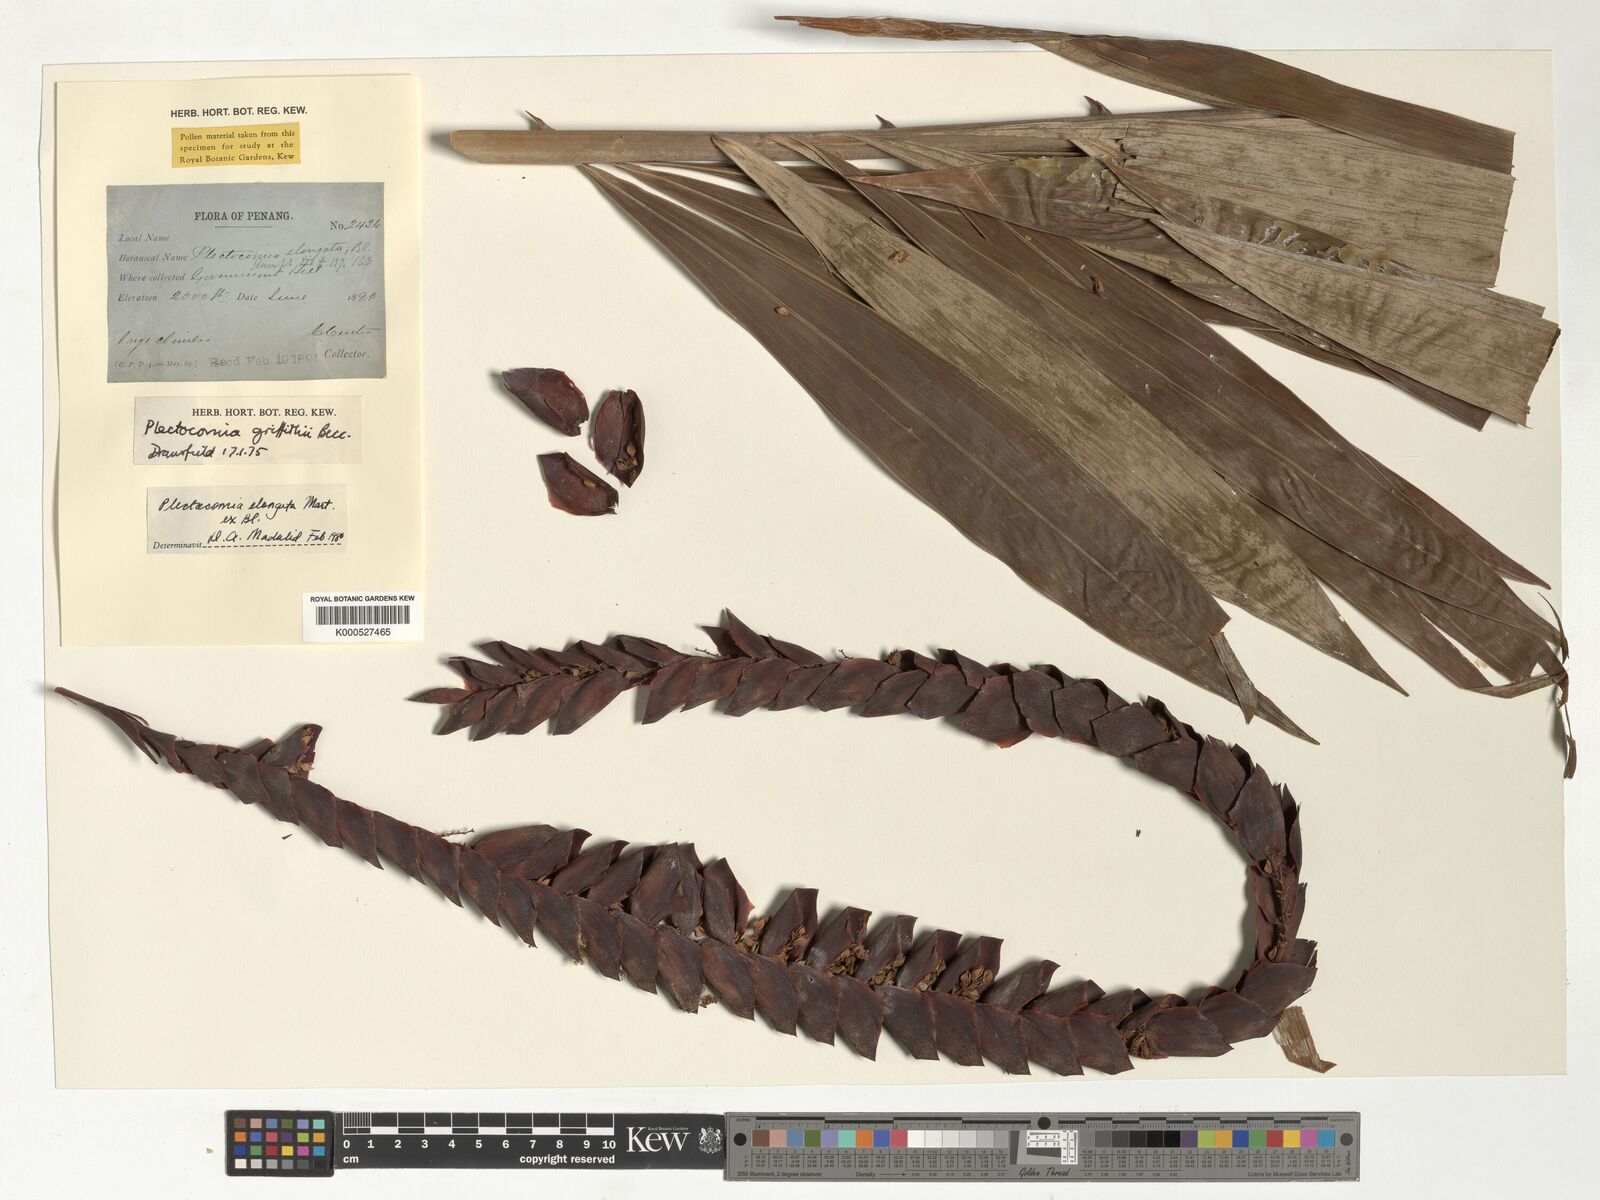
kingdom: Plantae
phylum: Tracheophyta
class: Liliopsida
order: Arecales
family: Arecaceae
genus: Plectocomia
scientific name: Plectocomia elongata
